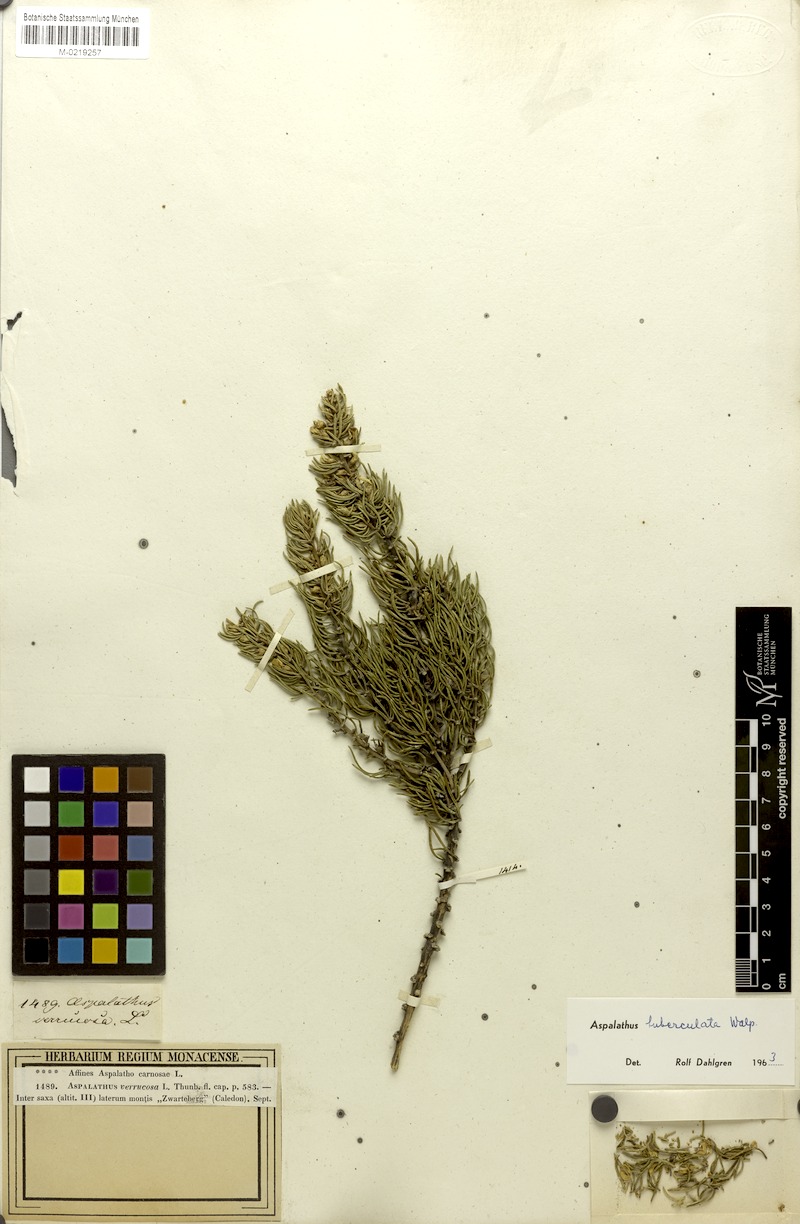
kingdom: Plantae
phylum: Tracheophyta
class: Magnoliopsida
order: Fabales
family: Fabaceae
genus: Aspalathus
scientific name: Aspalathus tuberculata
